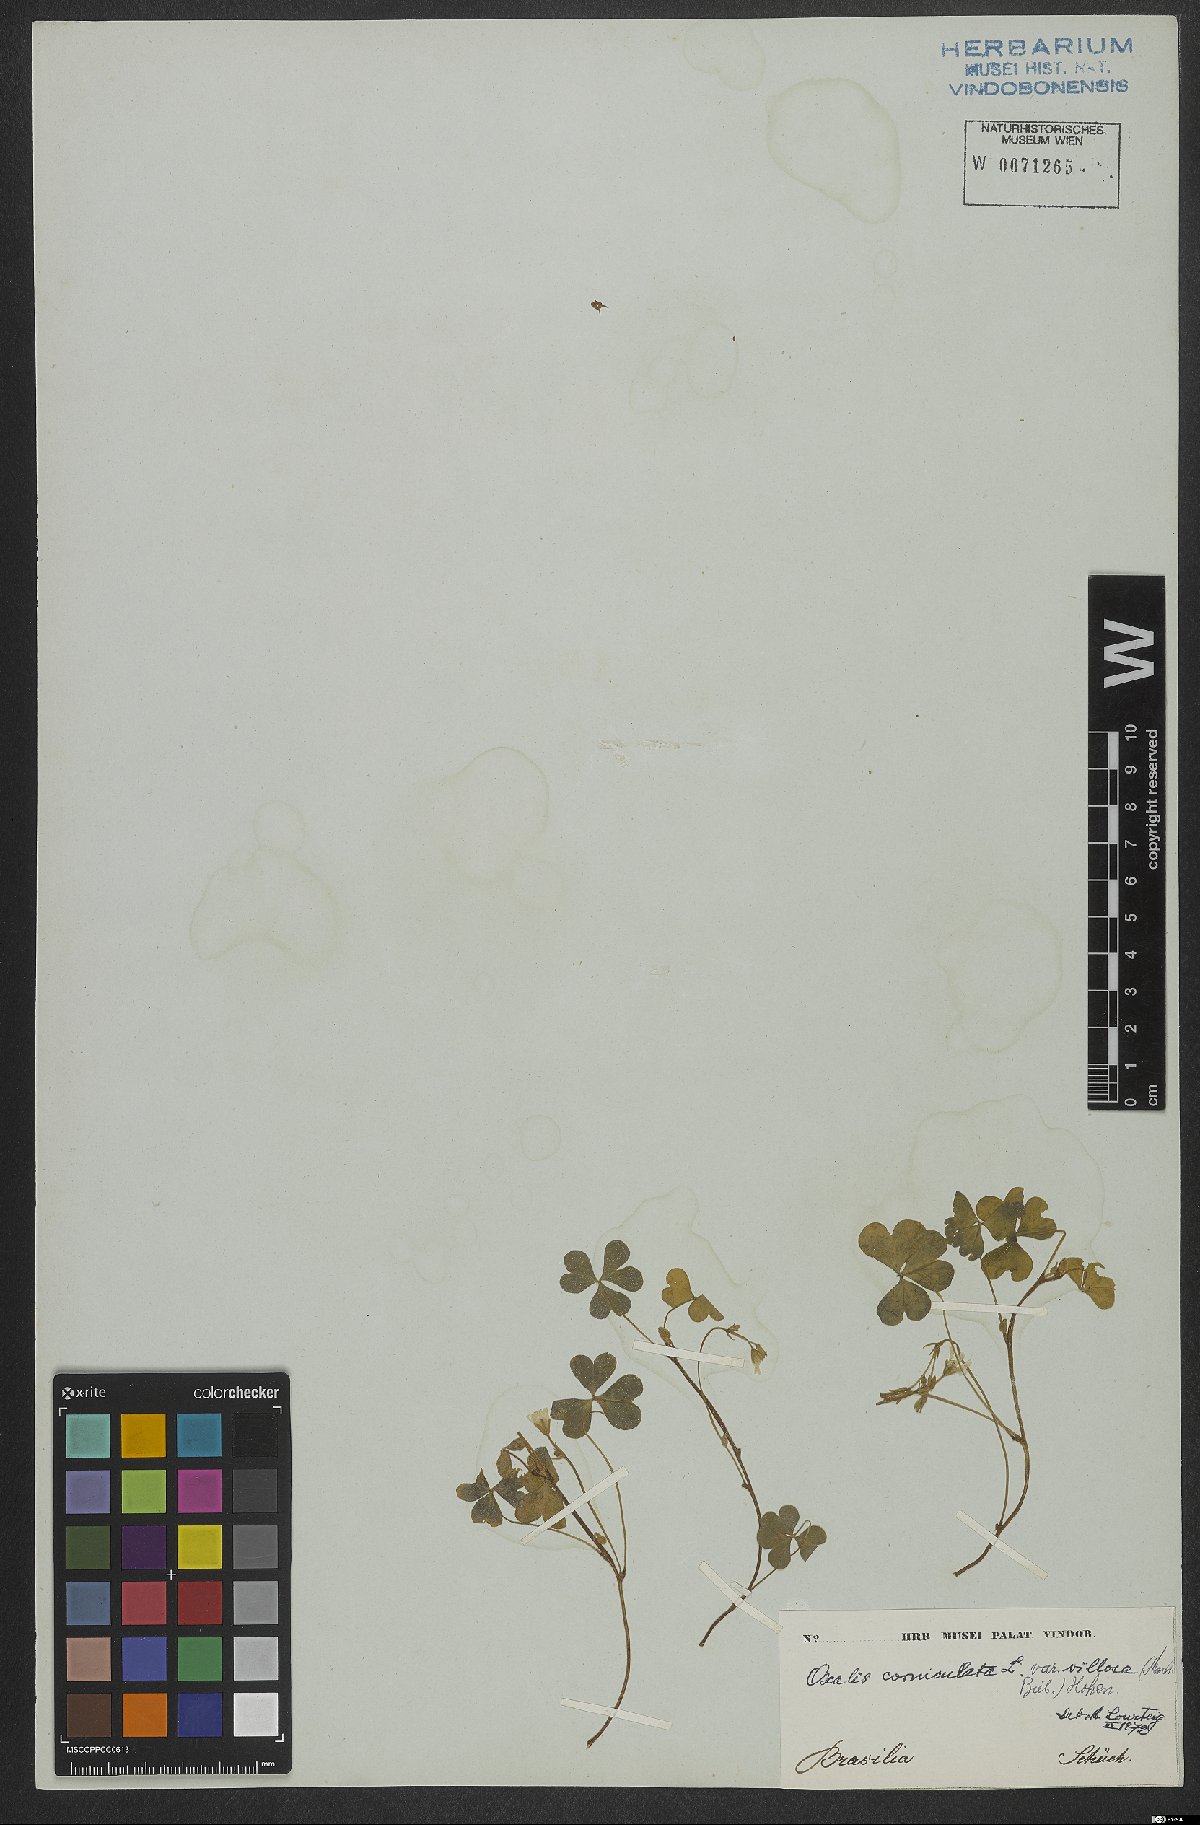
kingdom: Plantae
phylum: Tracheophyta
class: Magnoliopsida
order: Oxalidales
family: Oxalidaceae
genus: Oxalis
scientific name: Oxalis corniculata
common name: Procumbent yellow-sorrel
